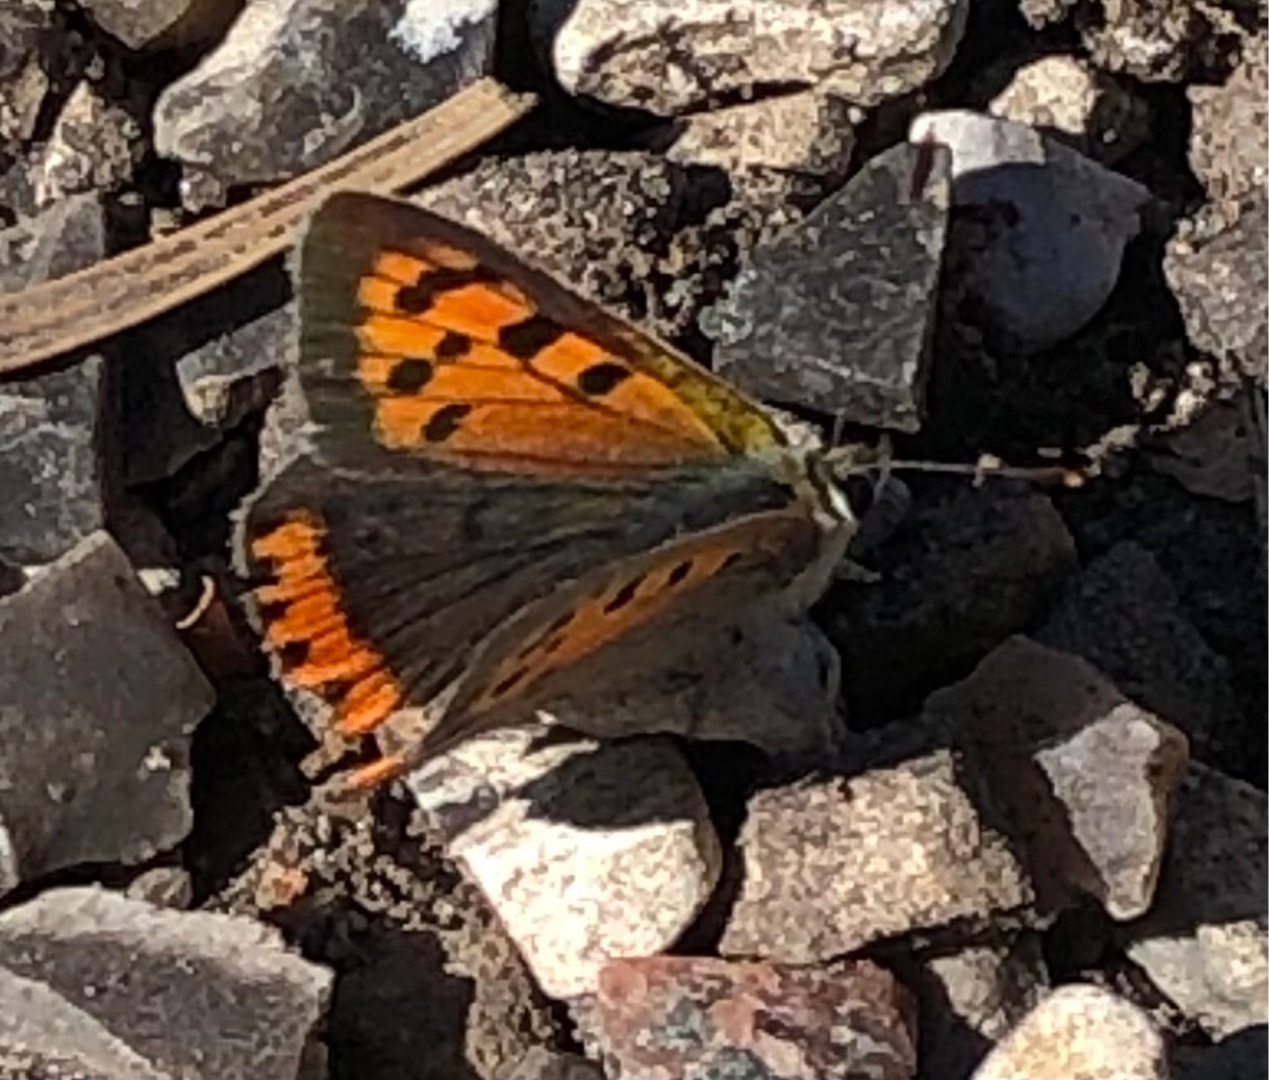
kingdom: Animalia
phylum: Arthropoda
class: Insecta
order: Lepidoptera
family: Lycaenidae
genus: Lycaena
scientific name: Lycaena phlaeas
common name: Lille ildfugl
